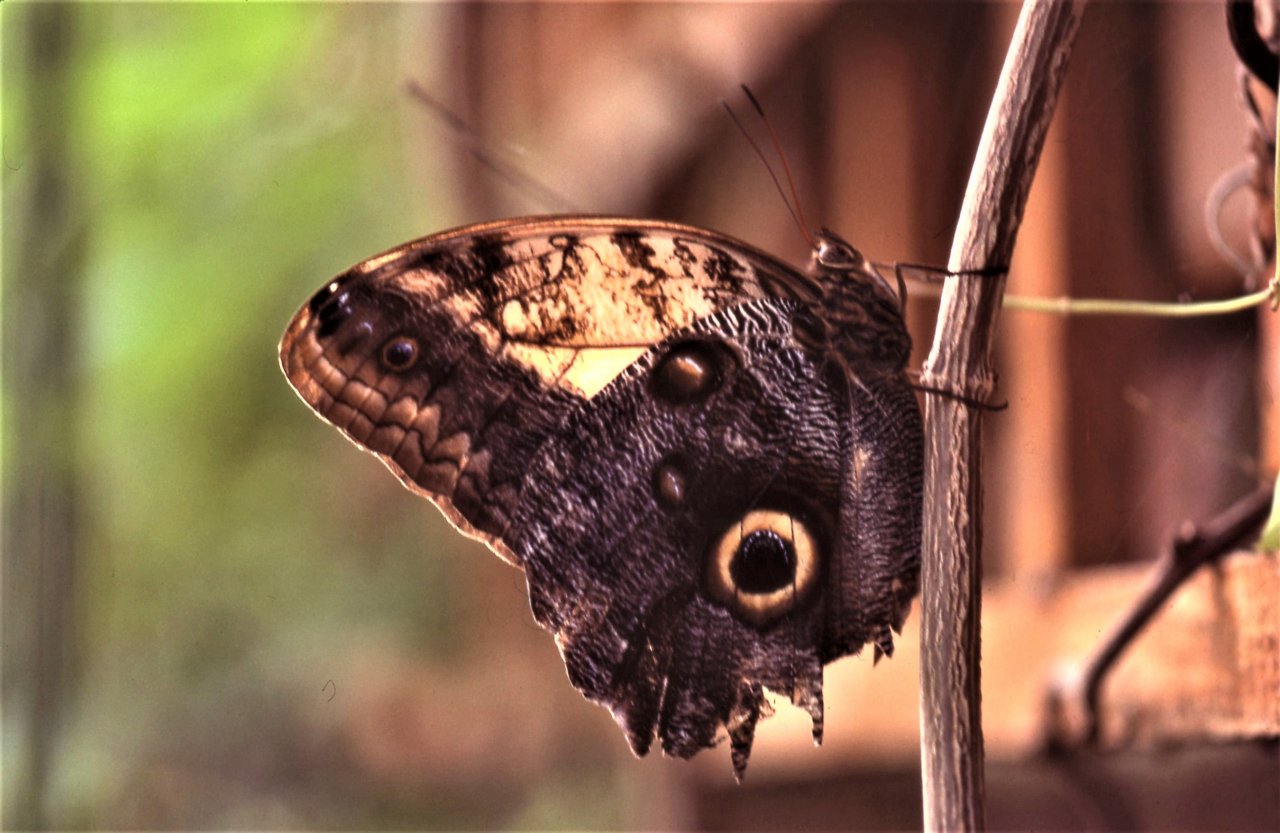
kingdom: Animalia
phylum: Arthropoda
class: Insecta
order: Lepidoptera
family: Nymphalidae
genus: Caligo
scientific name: Caligo telamonius
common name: Pale Owl-Butterfly
